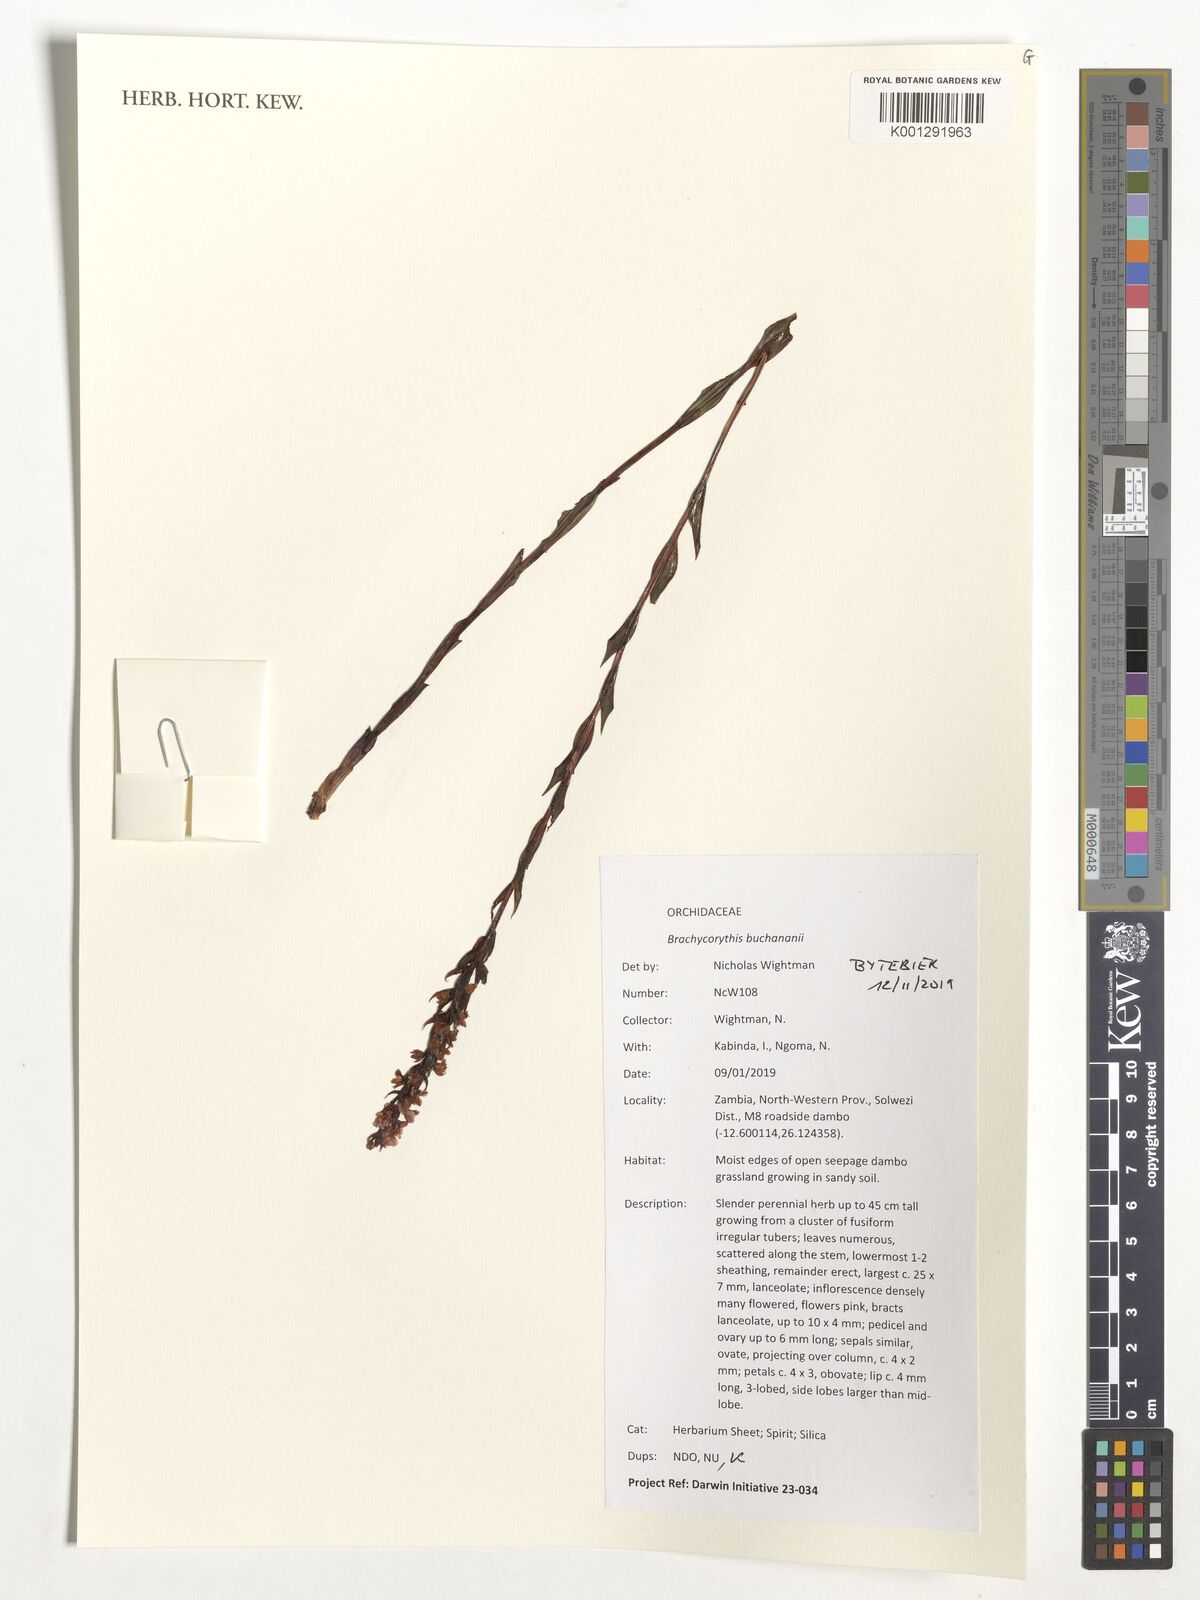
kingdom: Plantae
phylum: Tracheophyta
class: Liliopsida
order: Asparagales
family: Orchidaceae
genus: Brachycorythis
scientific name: Brachycorythis buchananii
